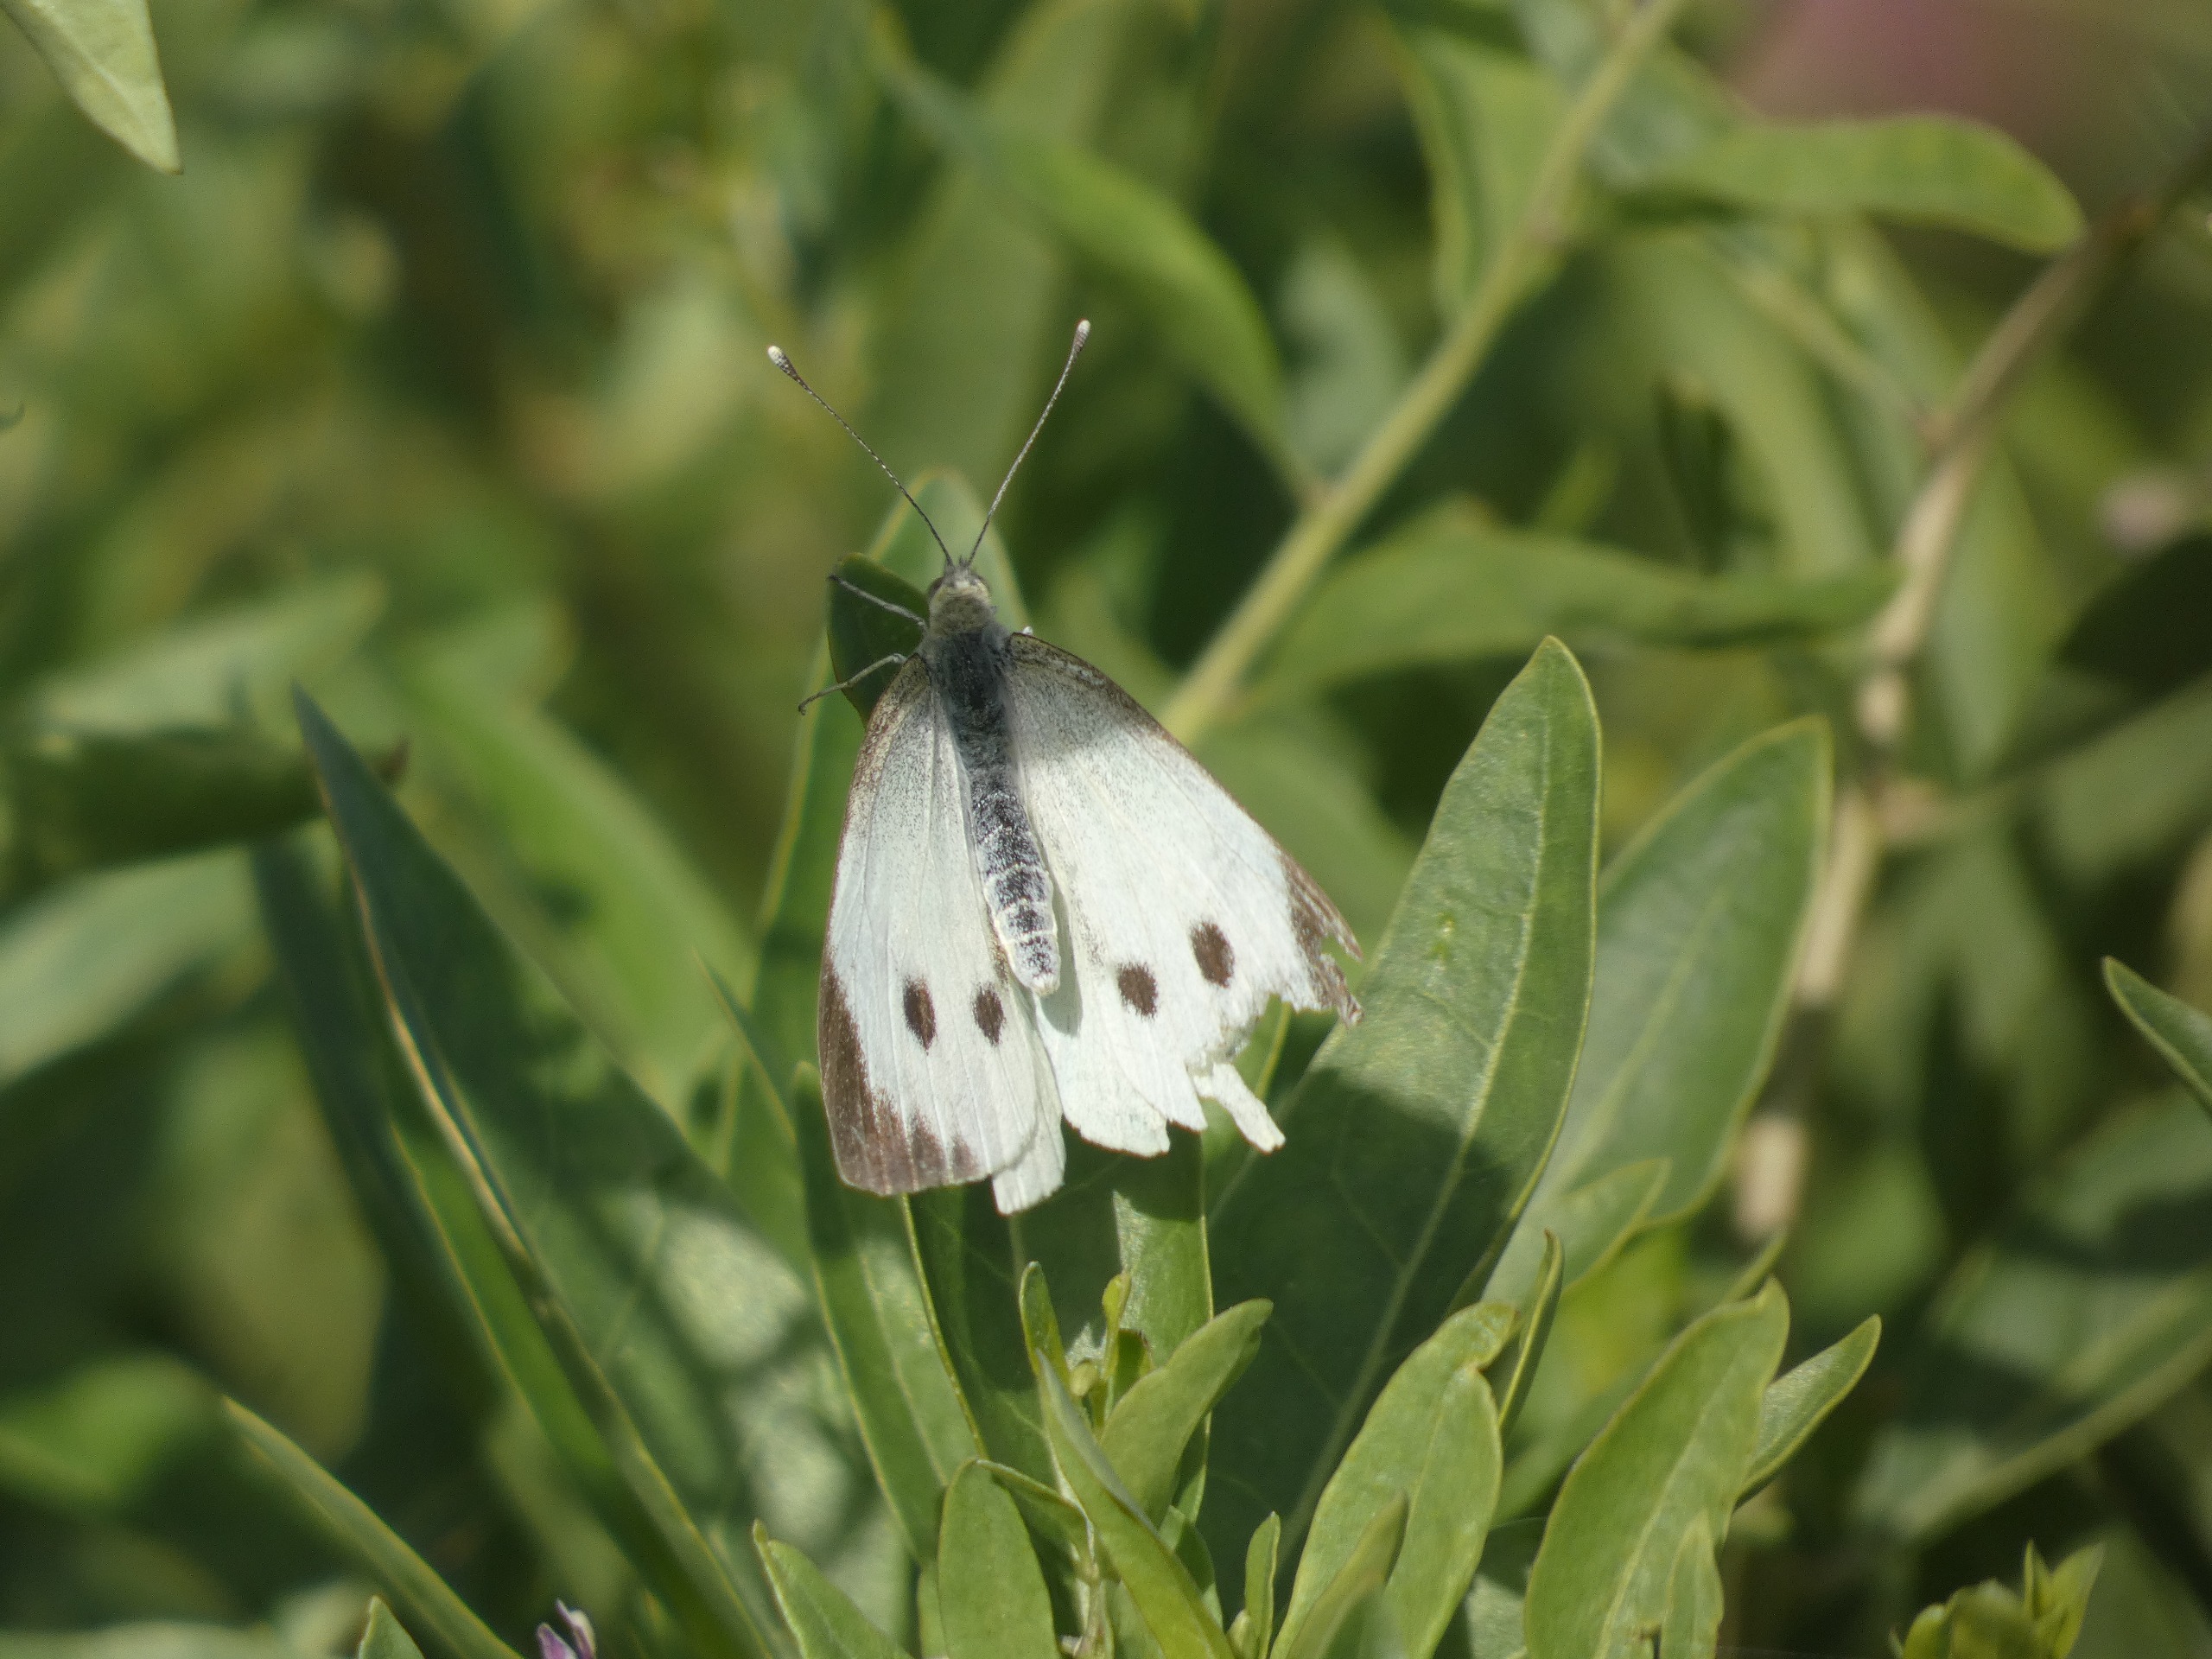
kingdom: Animalia
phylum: Arthropoda
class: Insecta
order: Lepidoptera
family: Pieridae
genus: Pieris
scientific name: Pieris brassicae
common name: Stor kålsommerfugl
